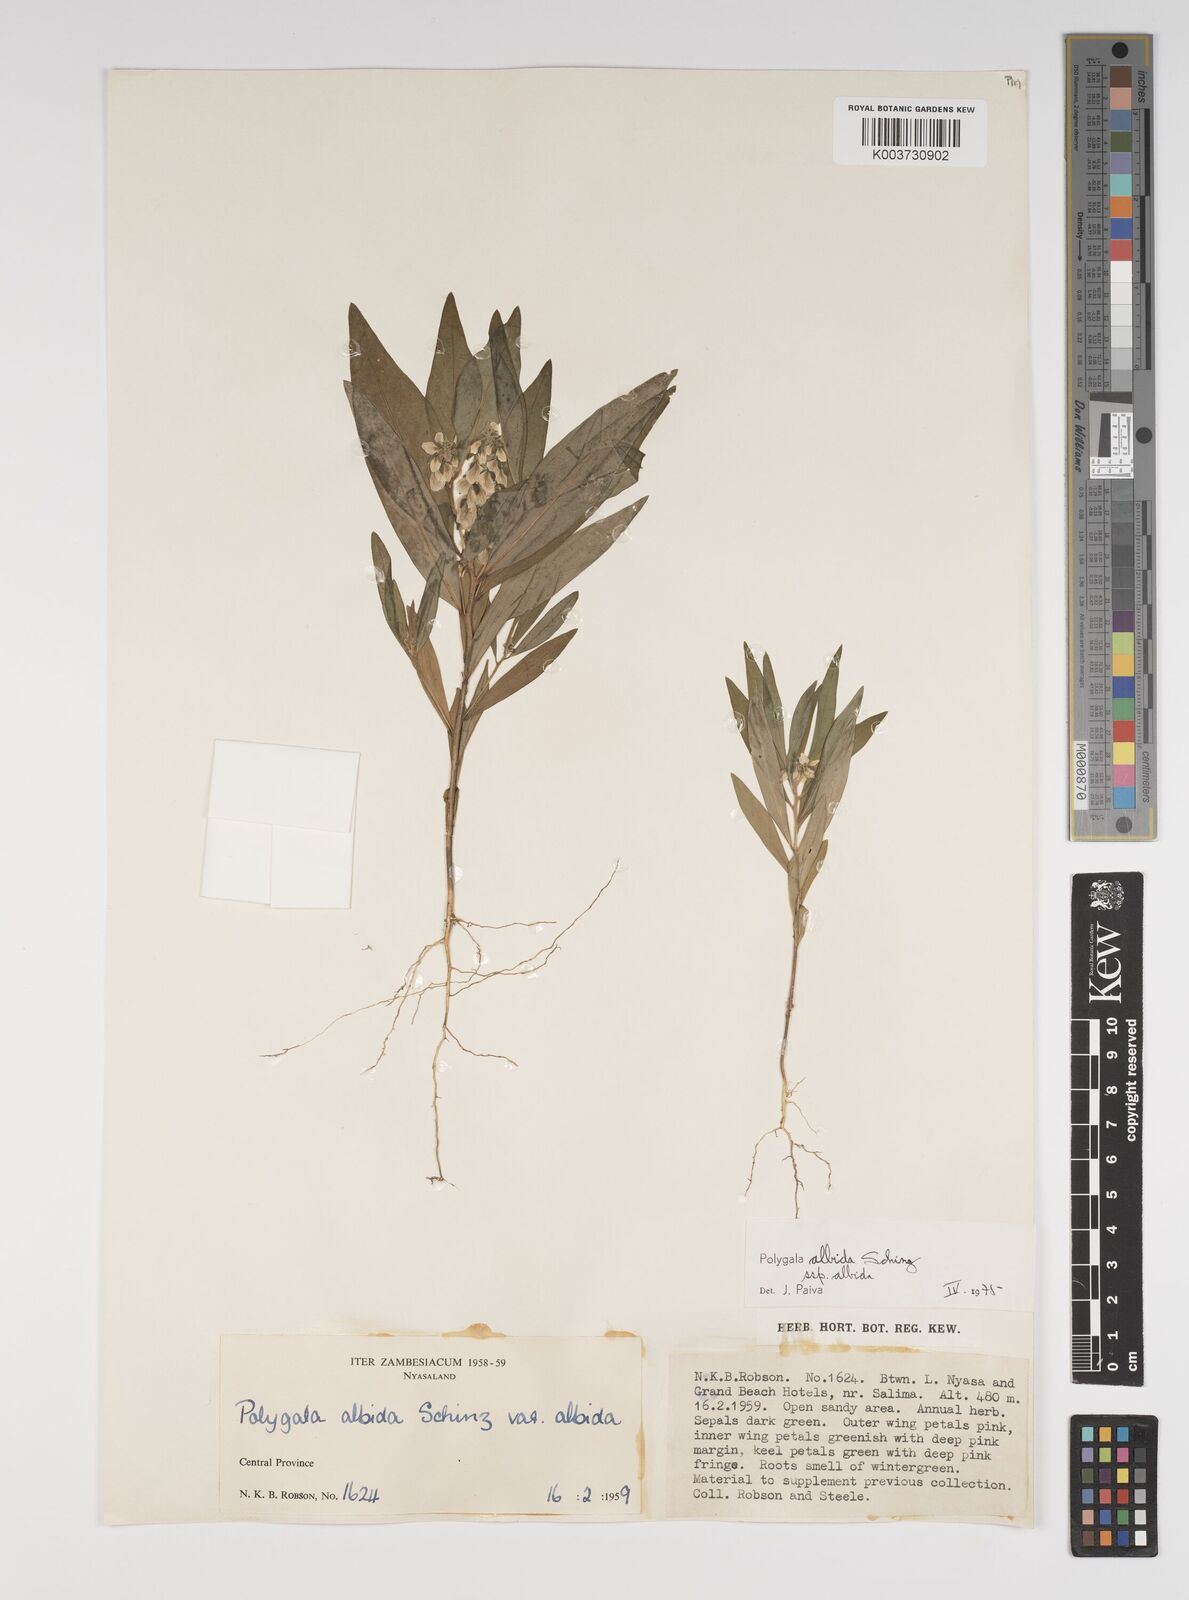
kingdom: Plantae
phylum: Tracheophyta
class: Magnoliopsida
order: Fabales
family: Polygalaceae
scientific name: Polygalaceae
